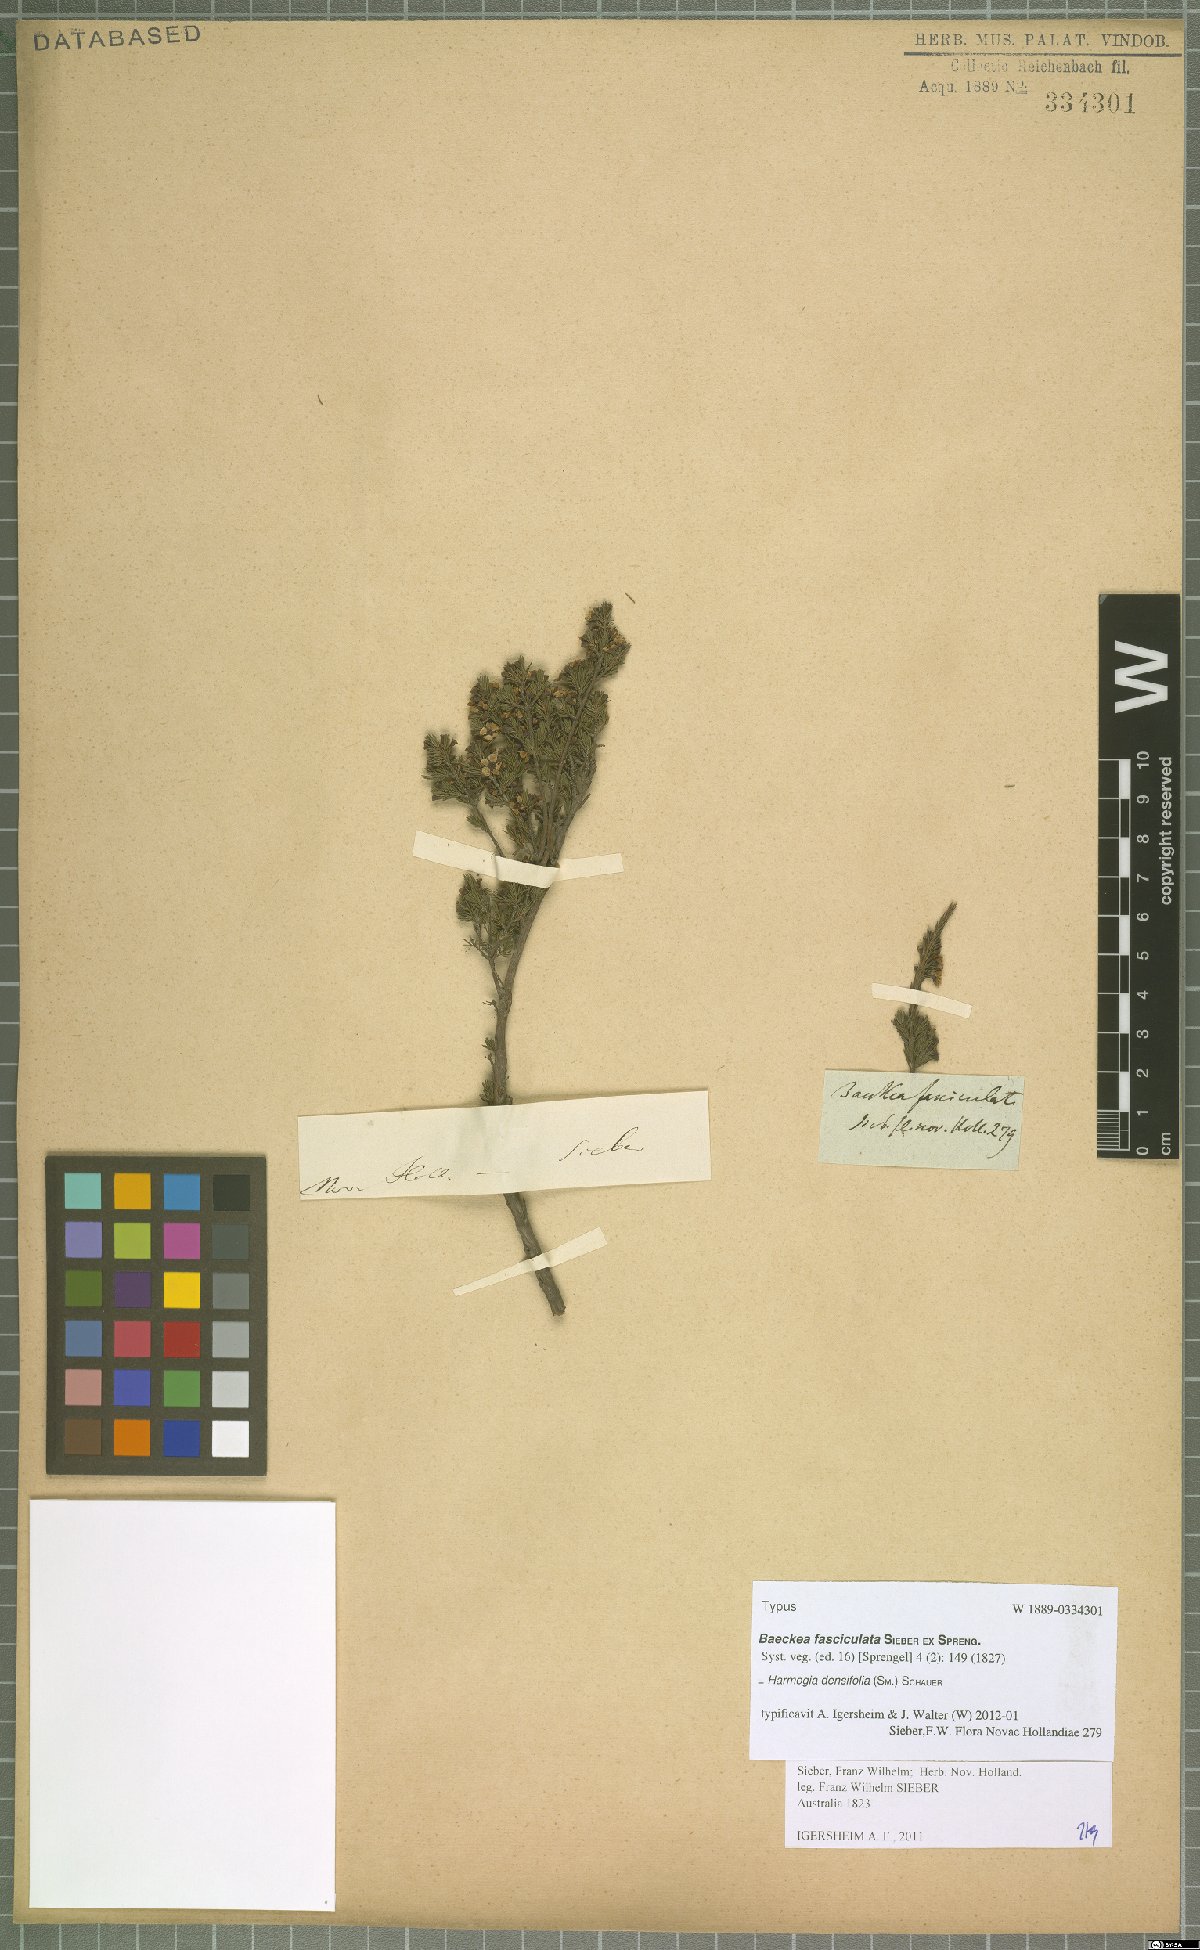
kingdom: Plantae
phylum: Tracheophyta
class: Magnoliopsida
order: Myrtales
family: Myrtaceae
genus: Harmogia
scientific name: Harmogia densifolia
